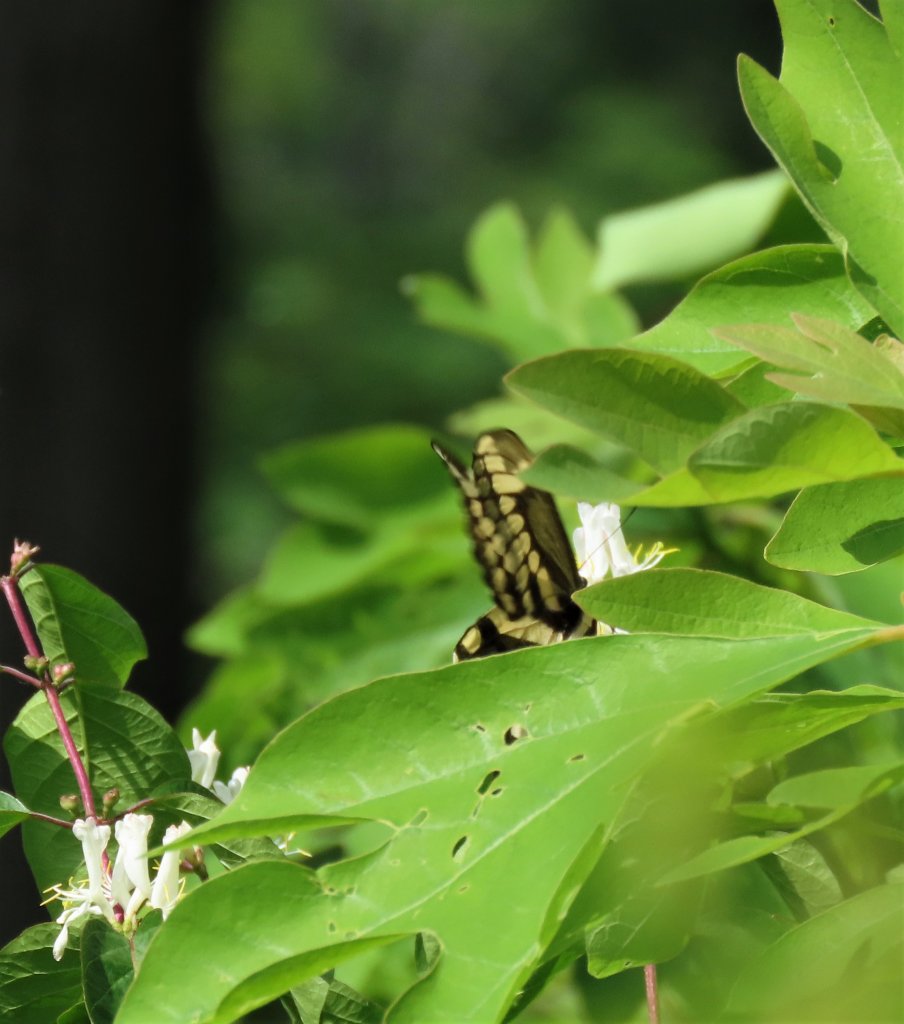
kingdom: Animalia
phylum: Arthropoda
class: Insecta
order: Lepidoptera
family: Papilionidae
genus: Papilio
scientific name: Papilio cresphontes
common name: Eastern Giant Swallowtail
